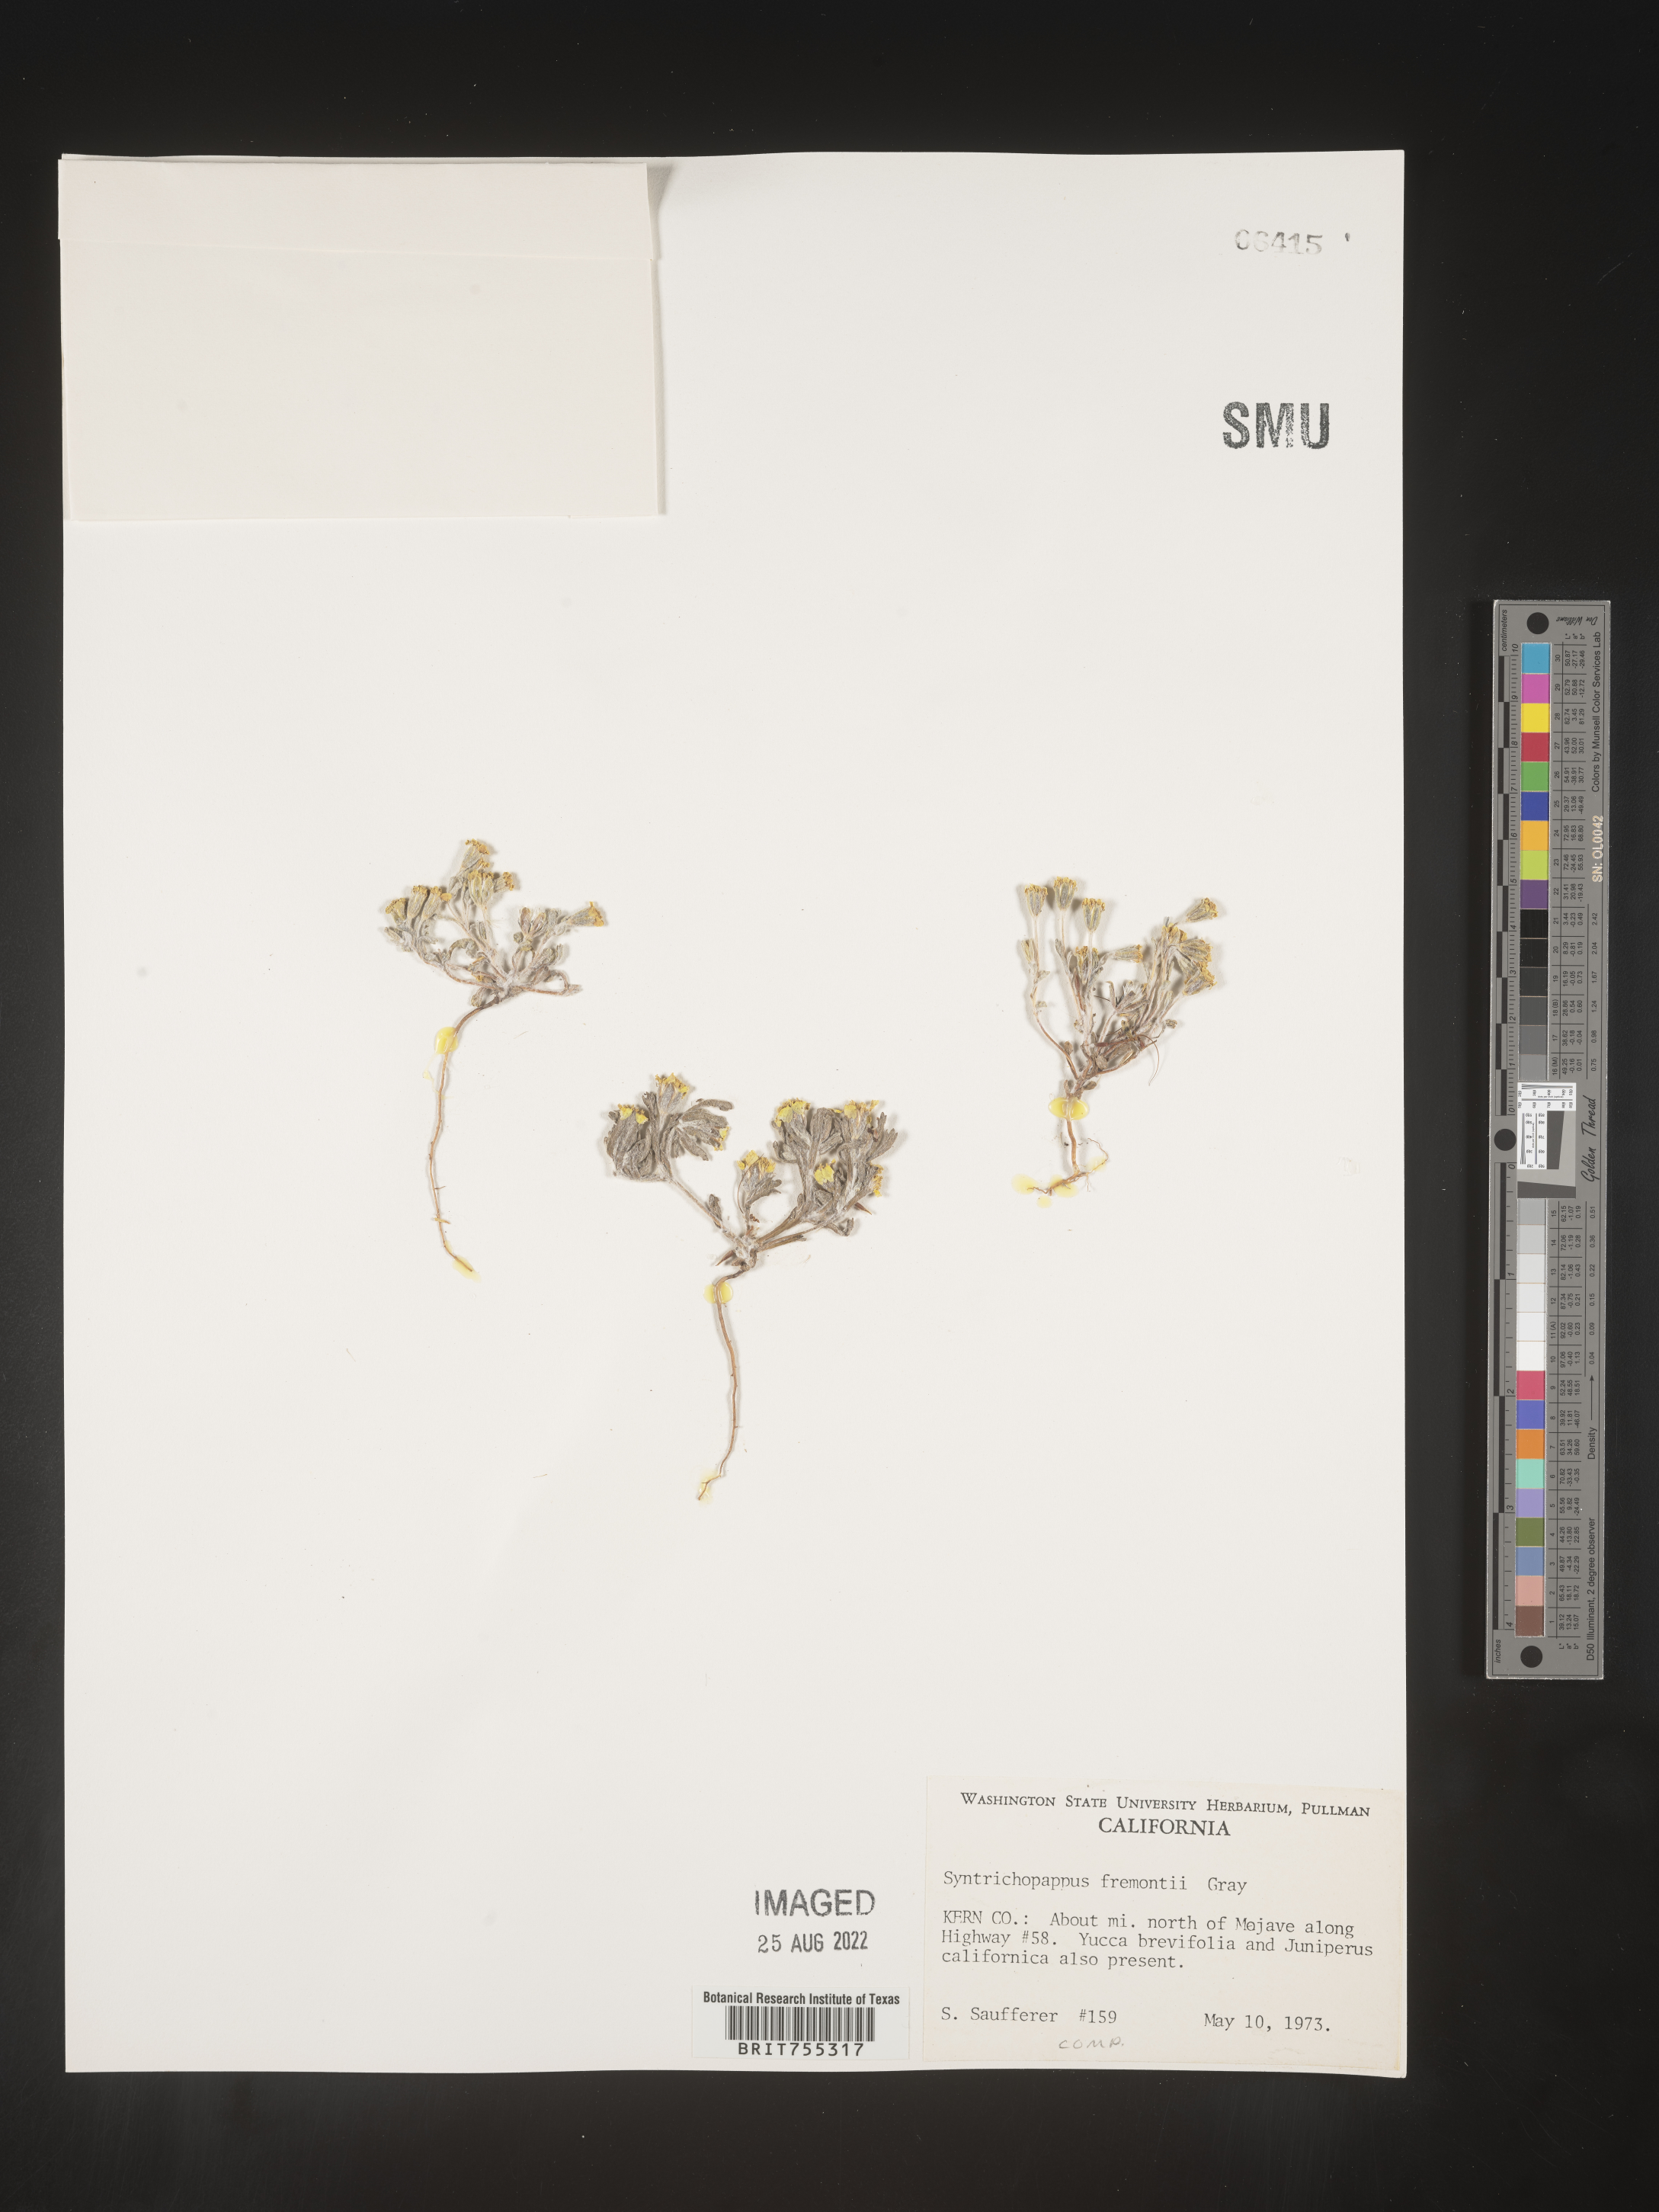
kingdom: Plantae
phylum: Tracheophyta
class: Magnoliopsida
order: Asterales
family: Asteraceae
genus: Syntrichopappus
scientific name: Syntrichopappus
